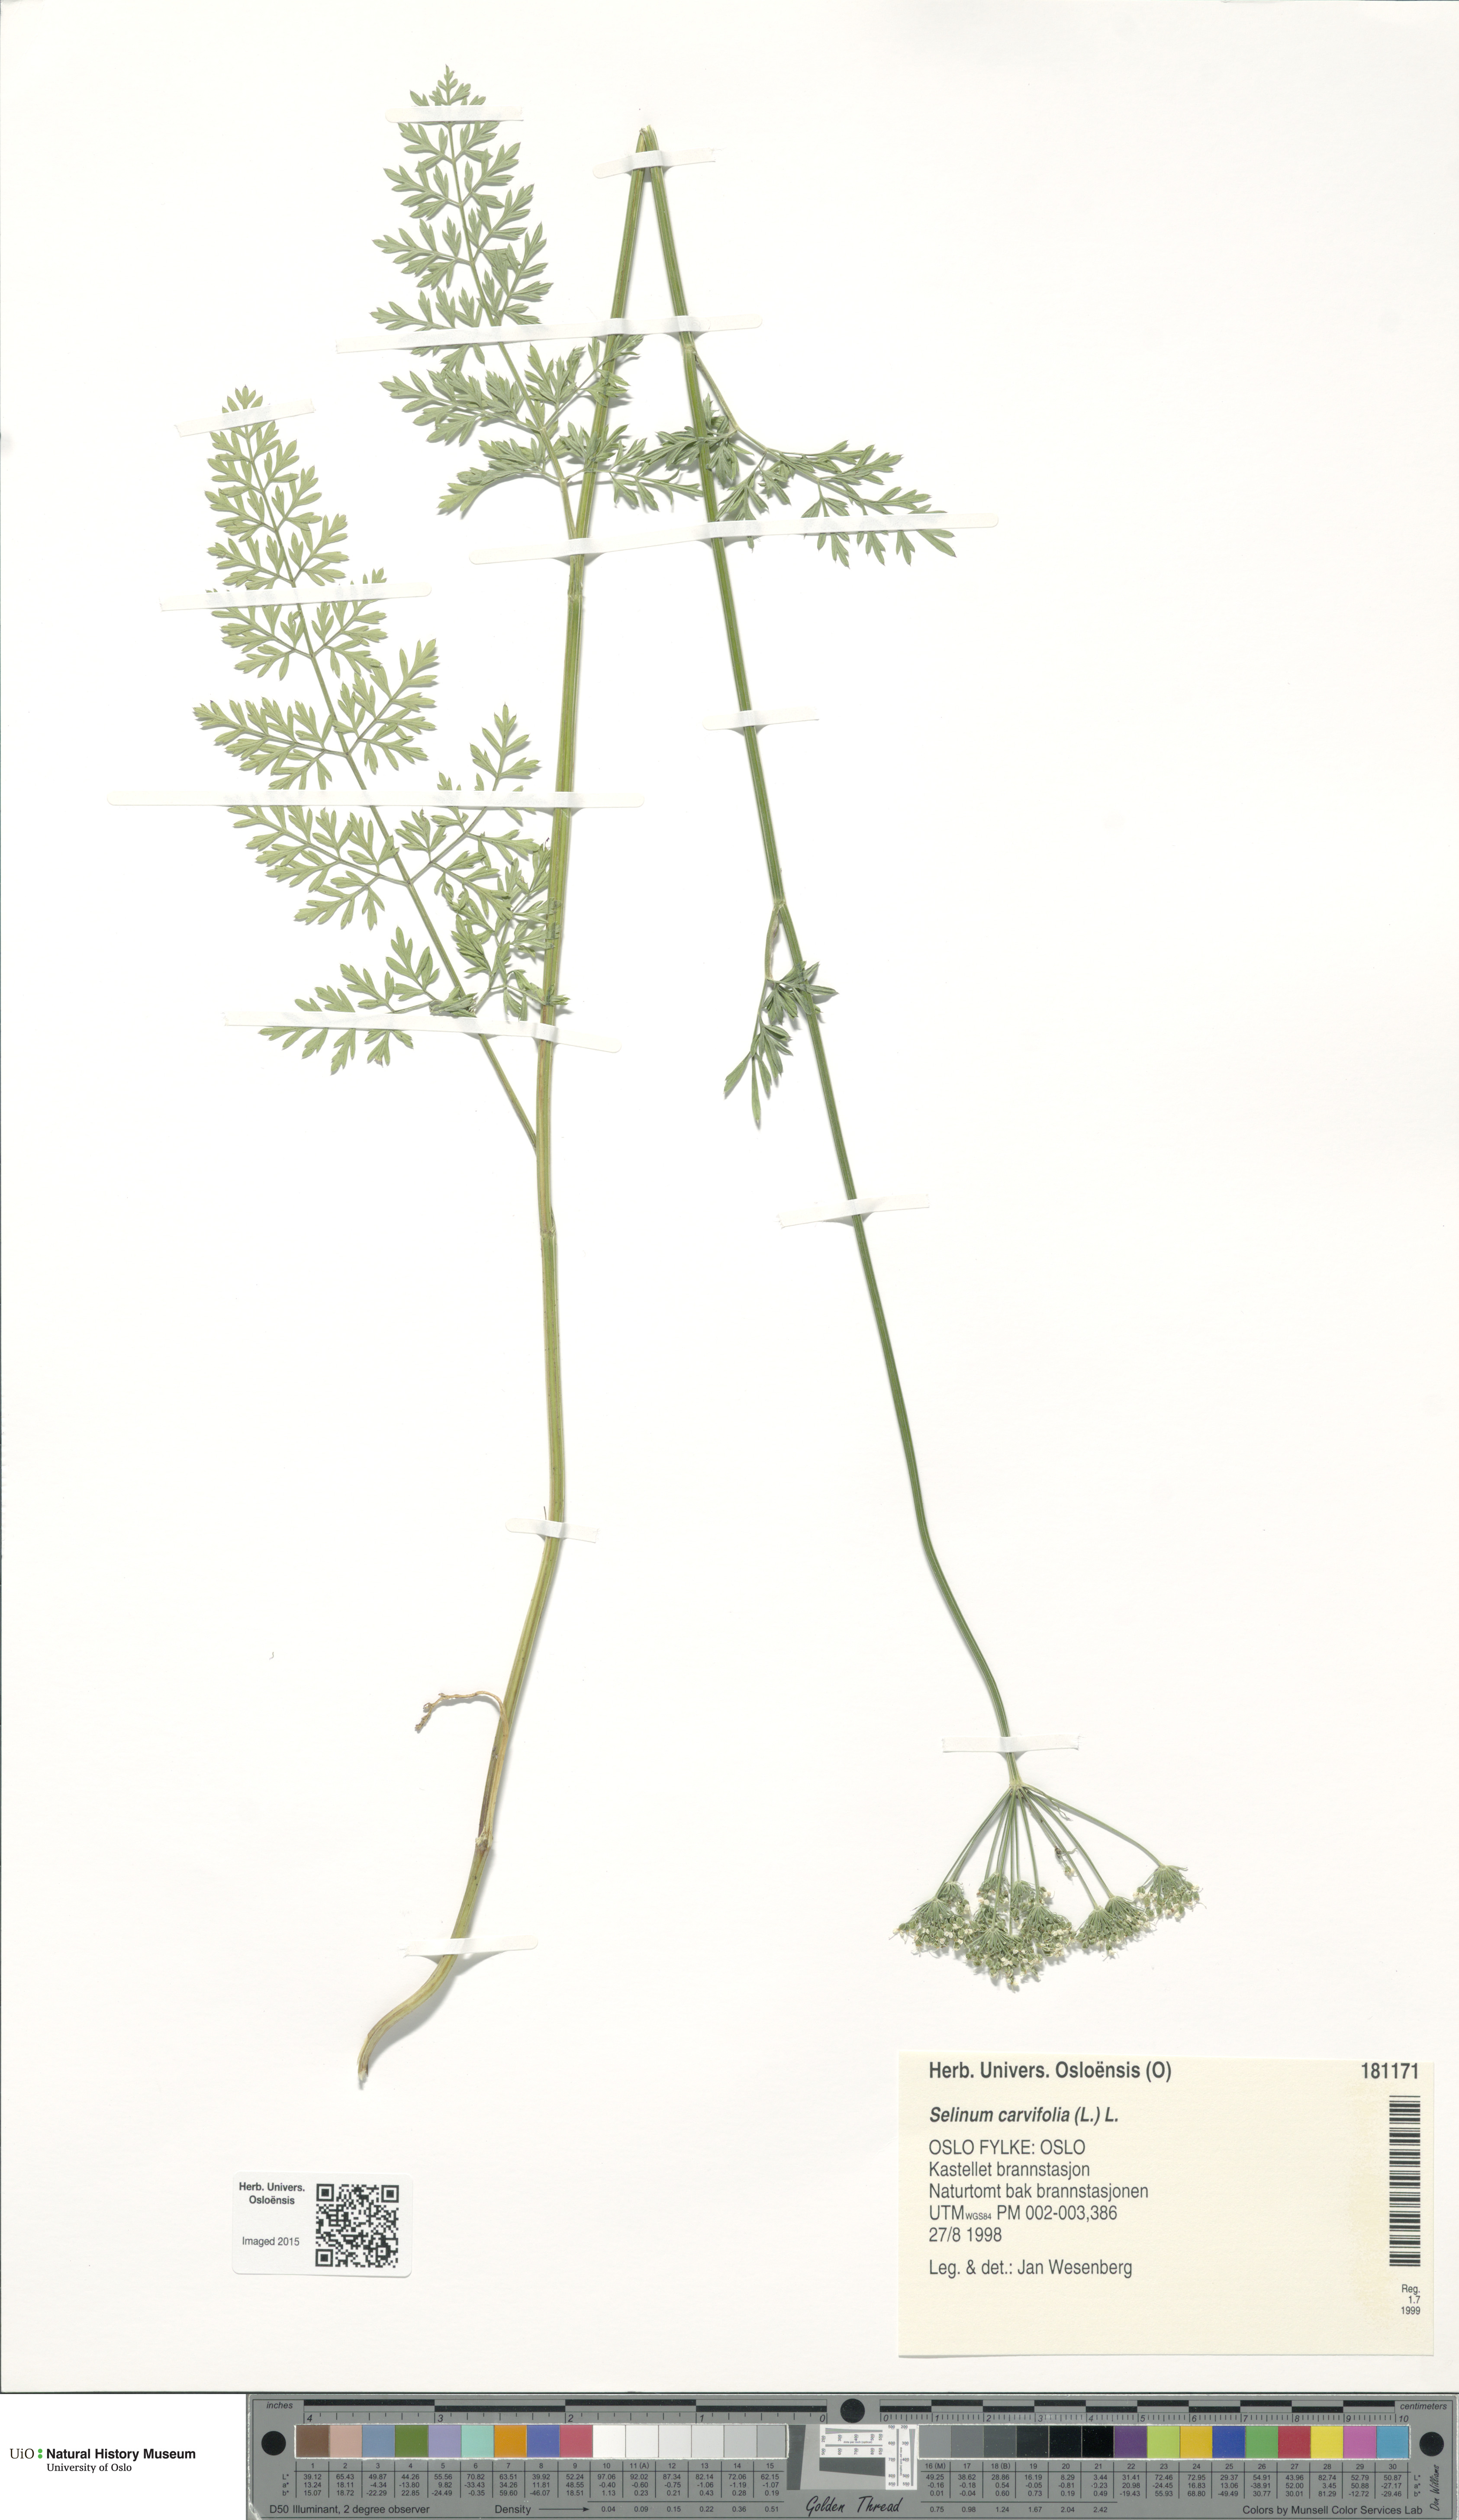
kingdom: Plantae
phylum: Tracheophyta
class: Magnoliopsida
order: Apiales
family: Apiaceae
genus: Selinum
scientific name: Selinum carvifolia
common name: Cambridge milk-parsley
